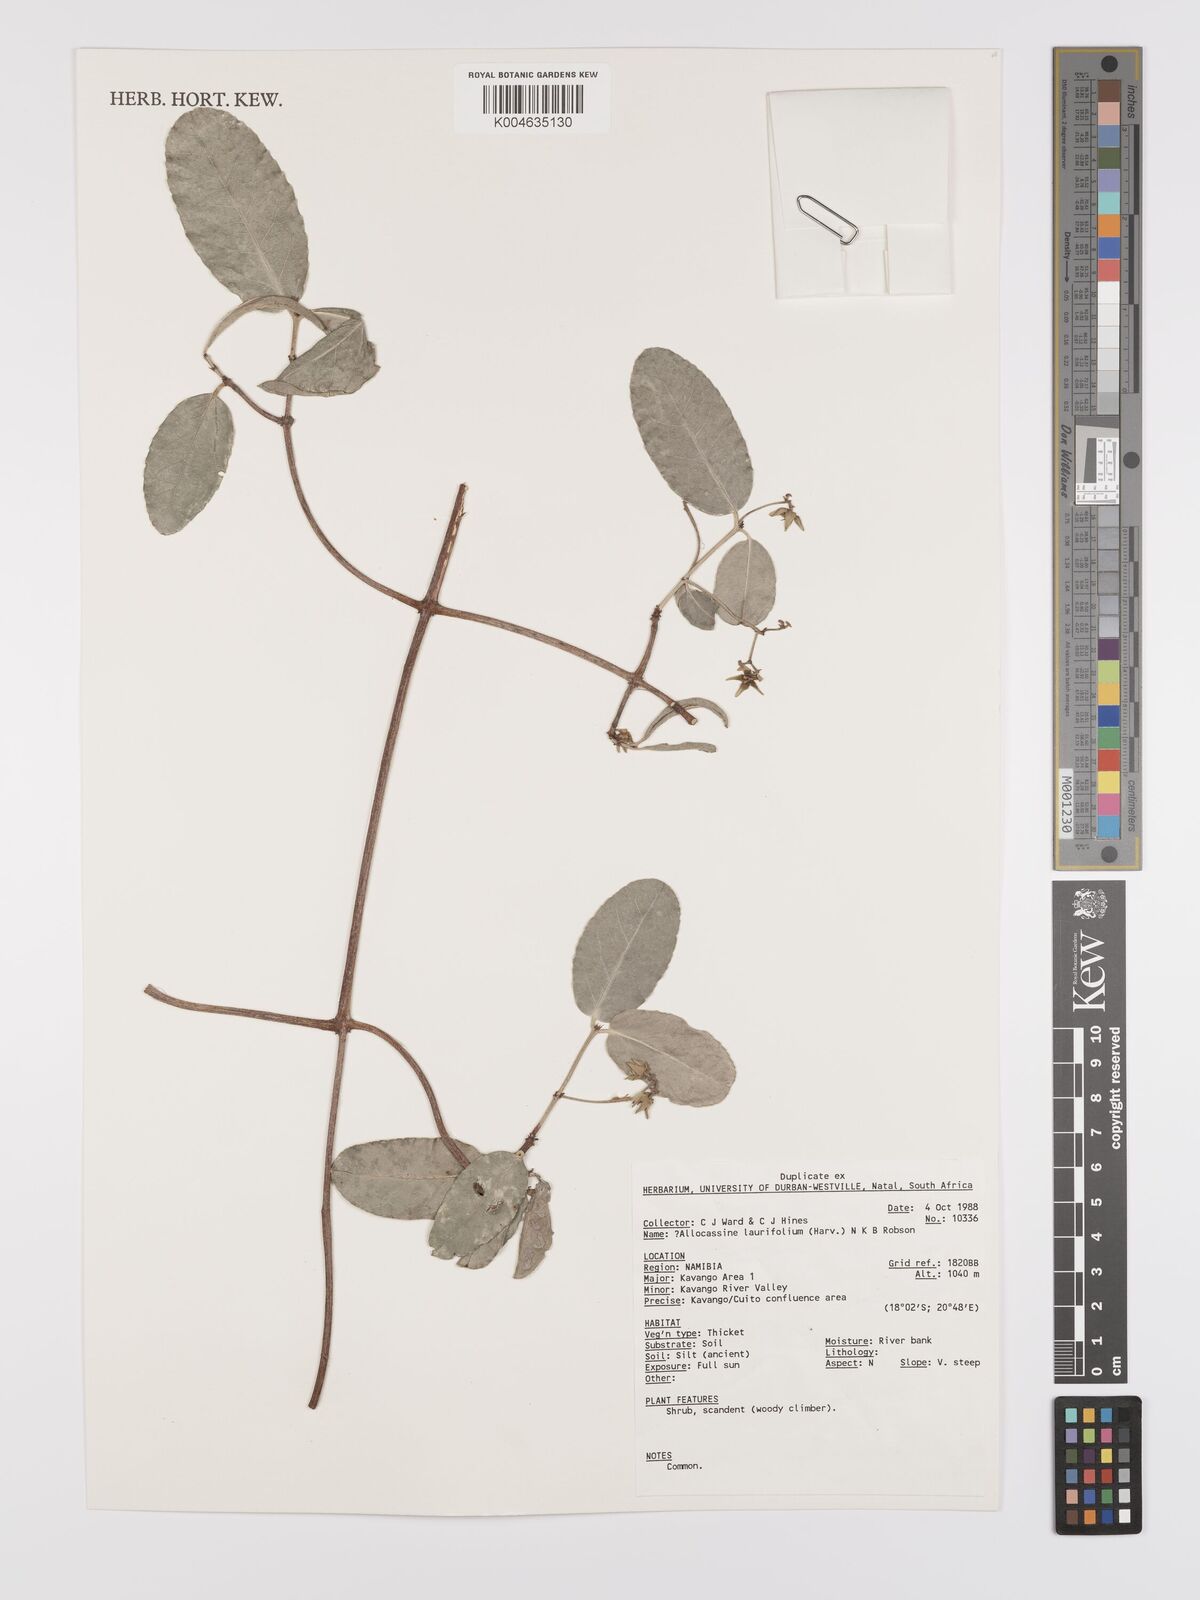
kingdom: Plantae
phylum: Tracheophyta
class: Magnoliopsida
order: Celastrales
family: Celastraceae
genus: Allocassine
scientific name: Allocassine
